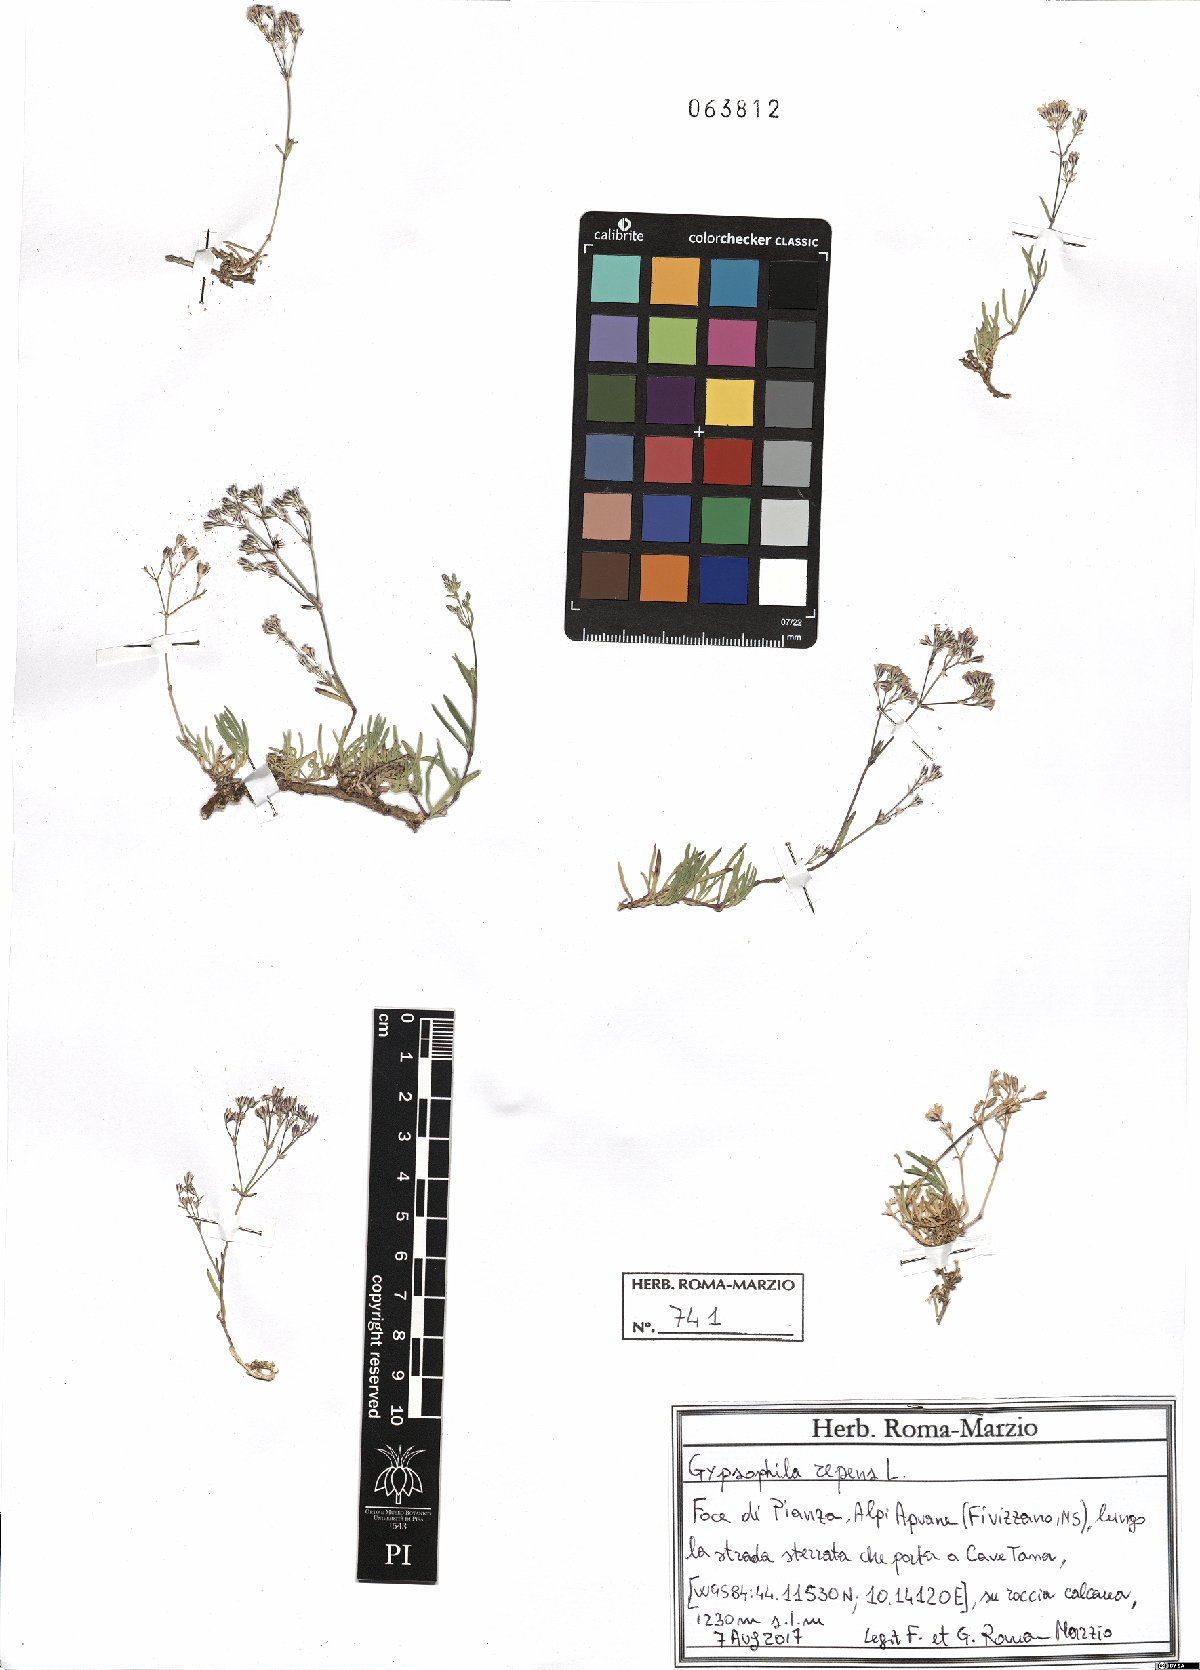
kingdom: Plantae
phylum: Tracheophyta
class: Magnoliopsida
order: Caryophyllales
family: Caryophyllaceae
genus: Gypsophila
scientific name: Gypsophila repens
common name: Creeping baby's-breath
